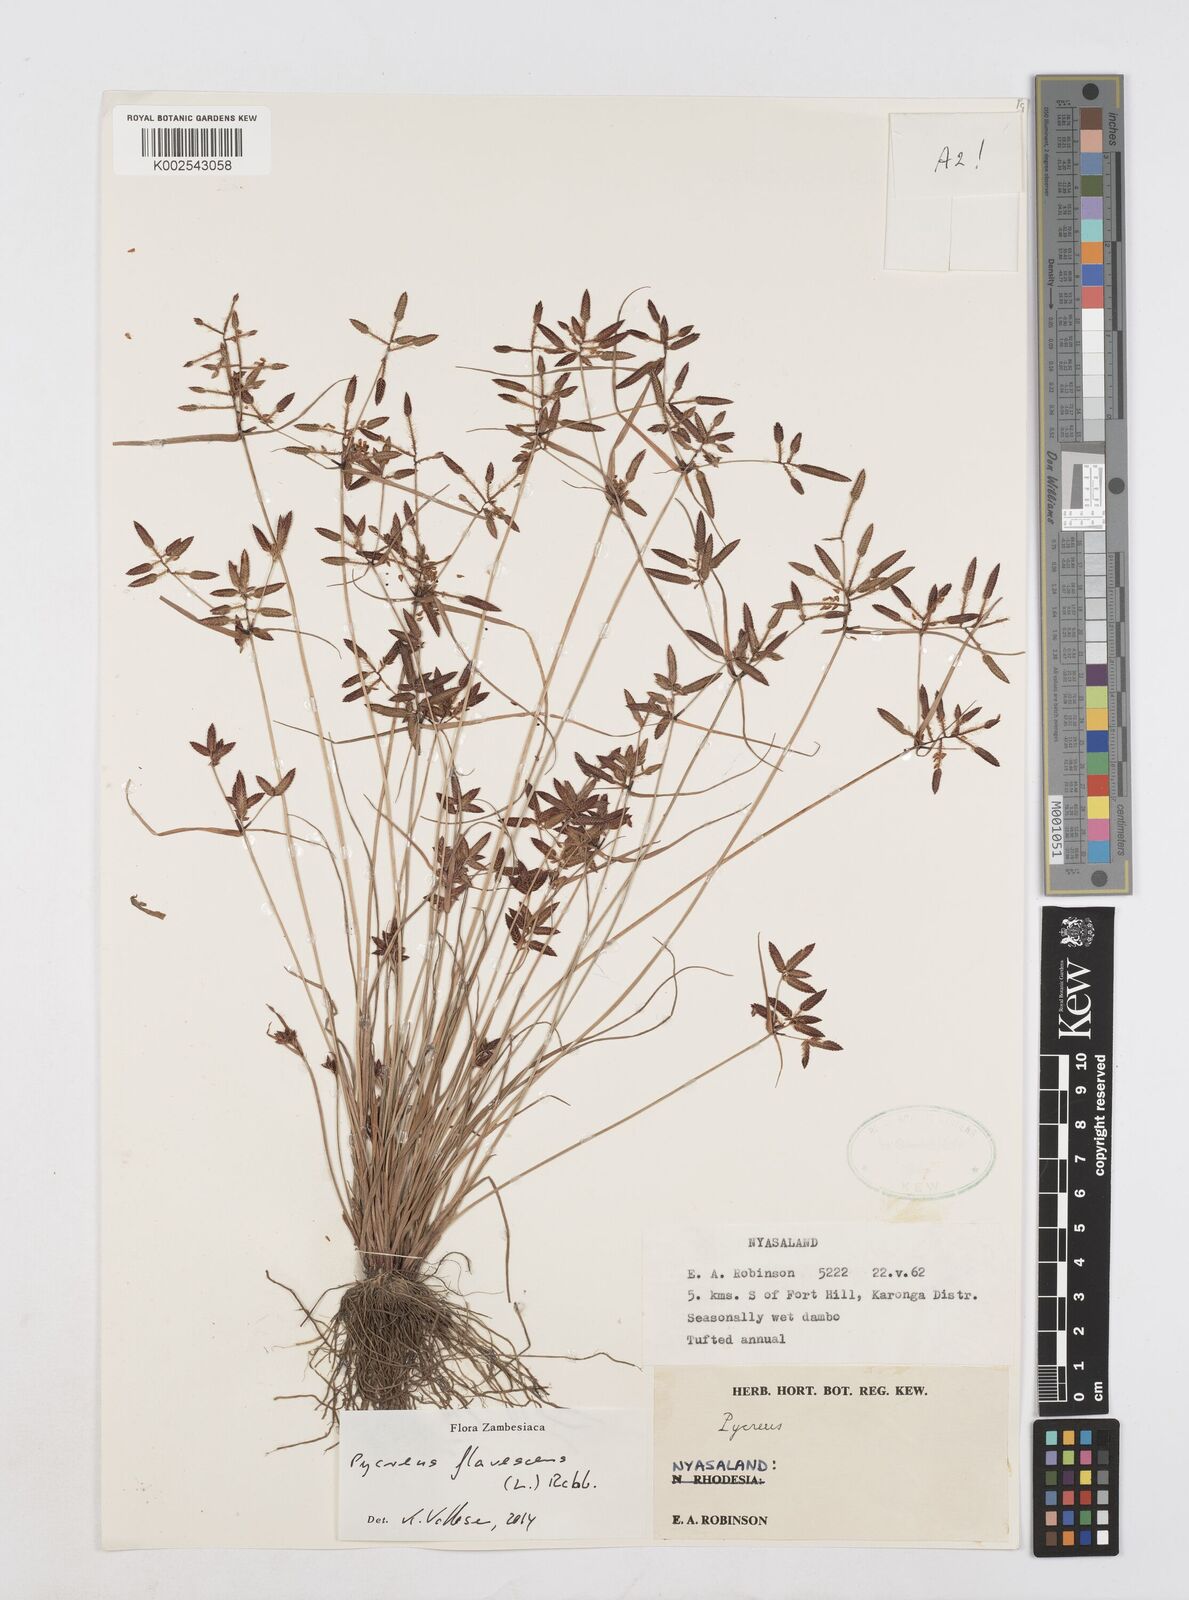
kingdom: Plantae
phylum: Tracheophyta
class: Liliopsida
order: Poales
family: Cyperaceae
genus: Cyperus
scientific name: Cyperus flavescens
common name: Yellow galingale
